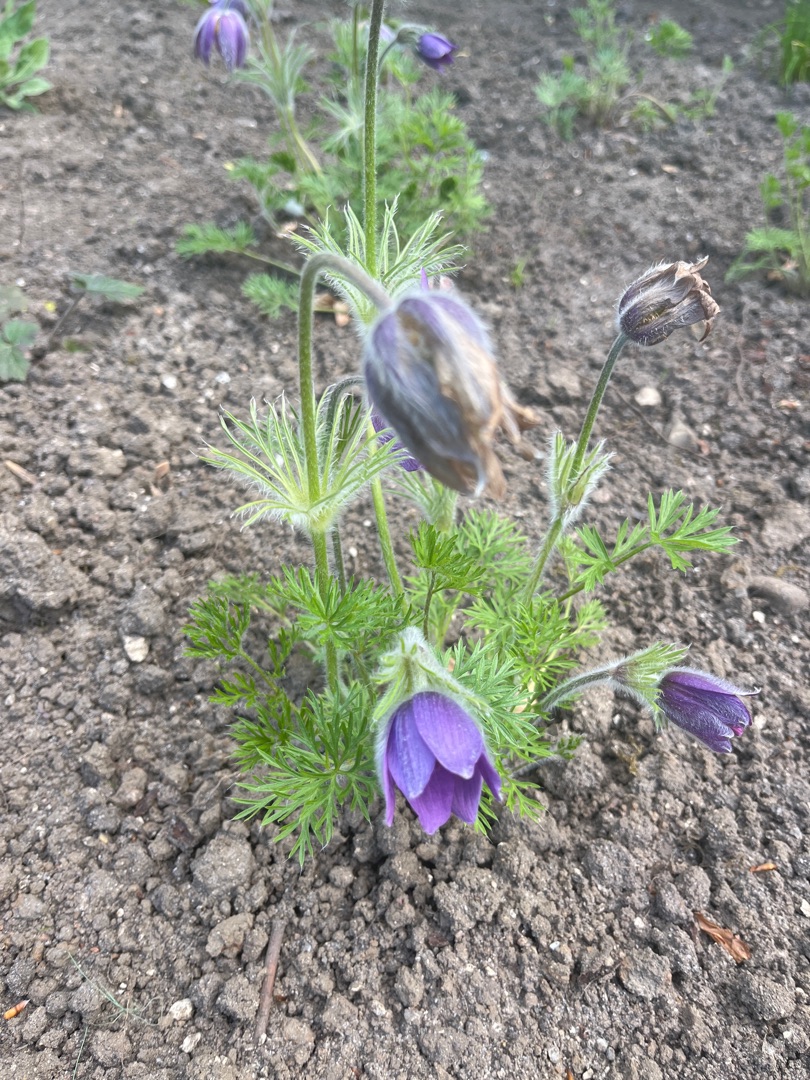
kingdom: Plantae
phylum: Tracheophyta
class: Magnoliopsida
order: Ranunculales
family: Ranunculaceae
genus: Pulsatilla
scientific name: Pulsatilla vulgaris
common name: Opret kobjælde
